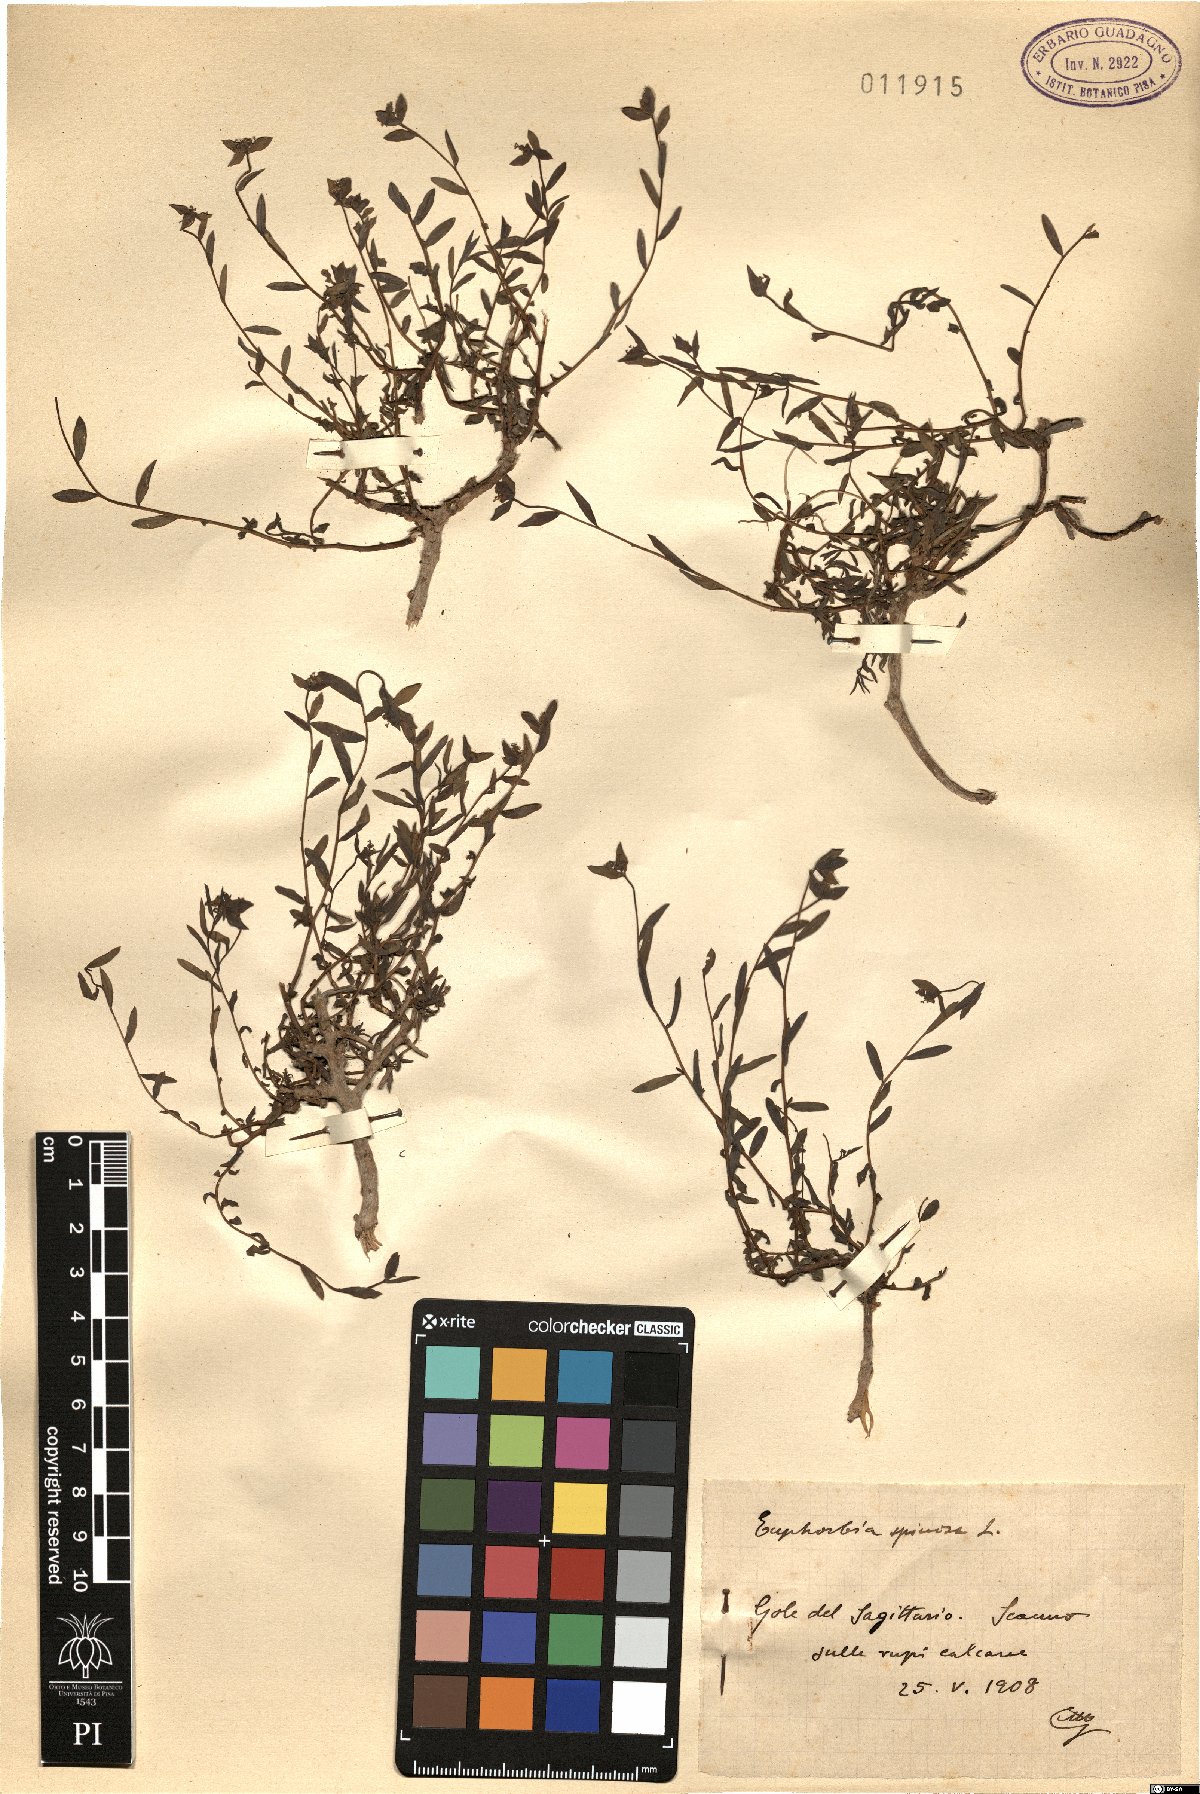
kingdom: Plantae
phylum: Tracheophyta
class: Magnoliopsida
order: Malpighiales
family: Euphorbiaceae
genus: Euphorbia
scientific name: Euphorbia spinosa
